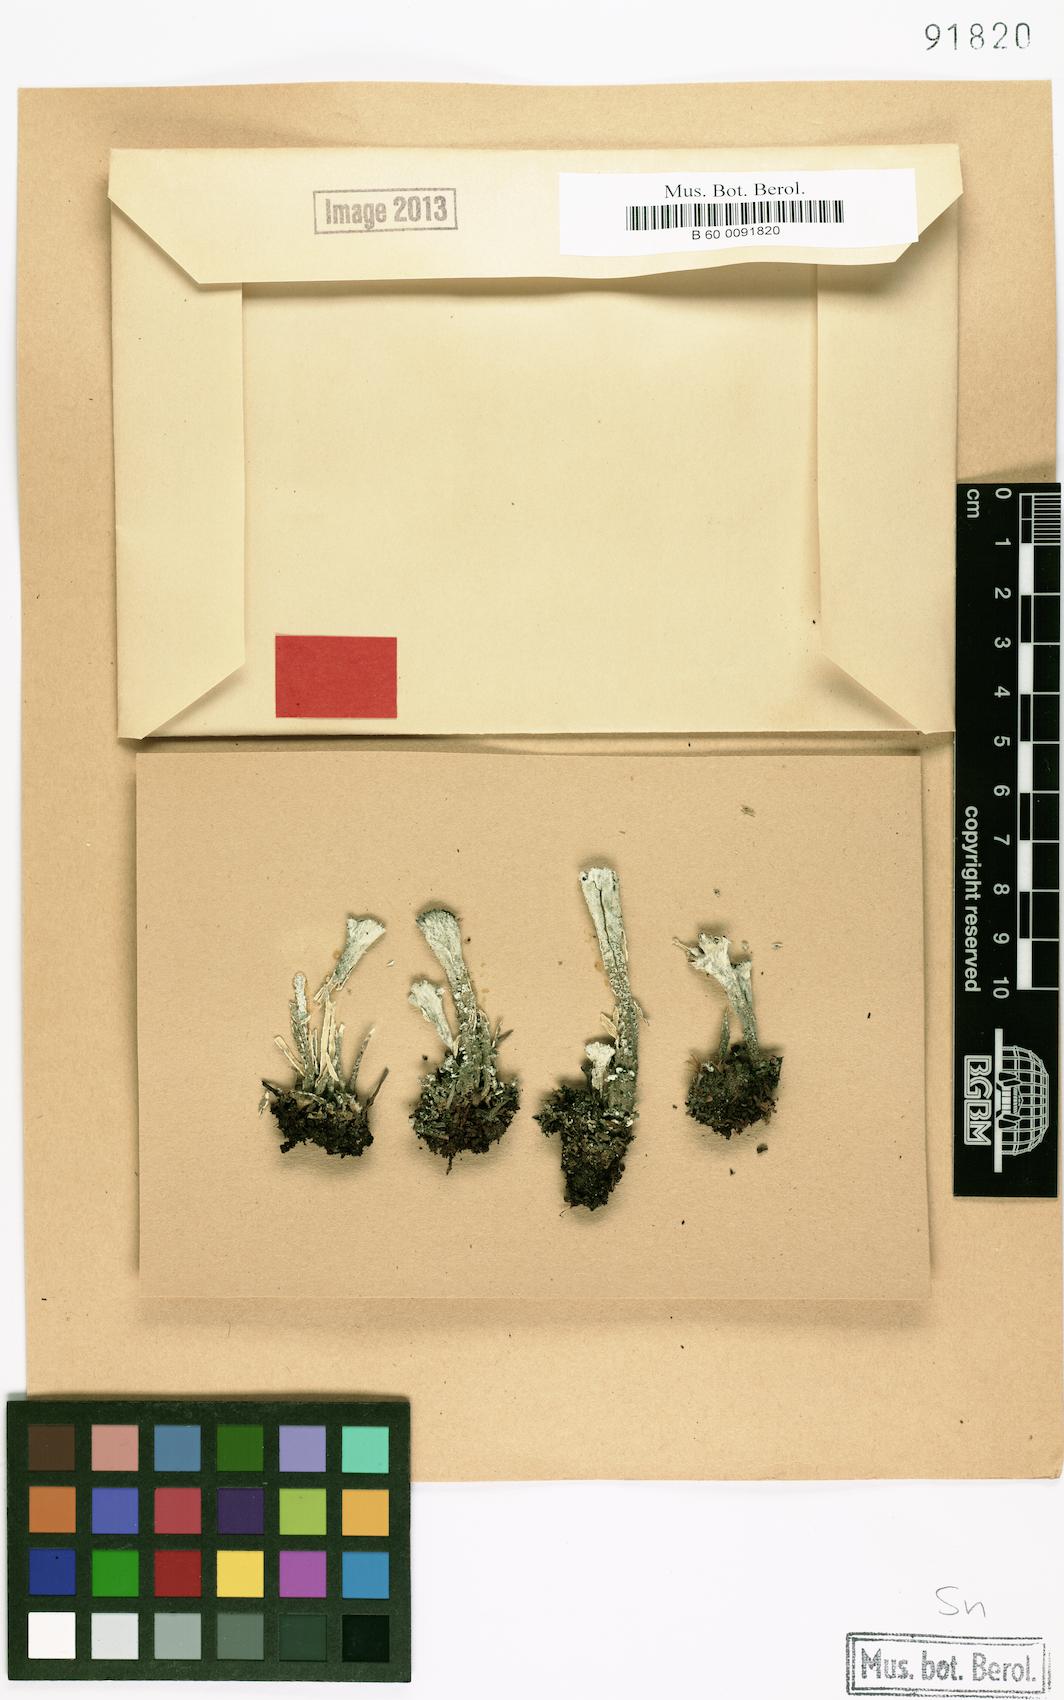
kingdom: Fungi
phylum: Ascomycota
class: Lecanoromycetes
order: Lecanorales
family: Cladoniaceae
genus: Cladonia
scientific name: Cladonia deformis
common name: Lesser sulphur-cup lichen
